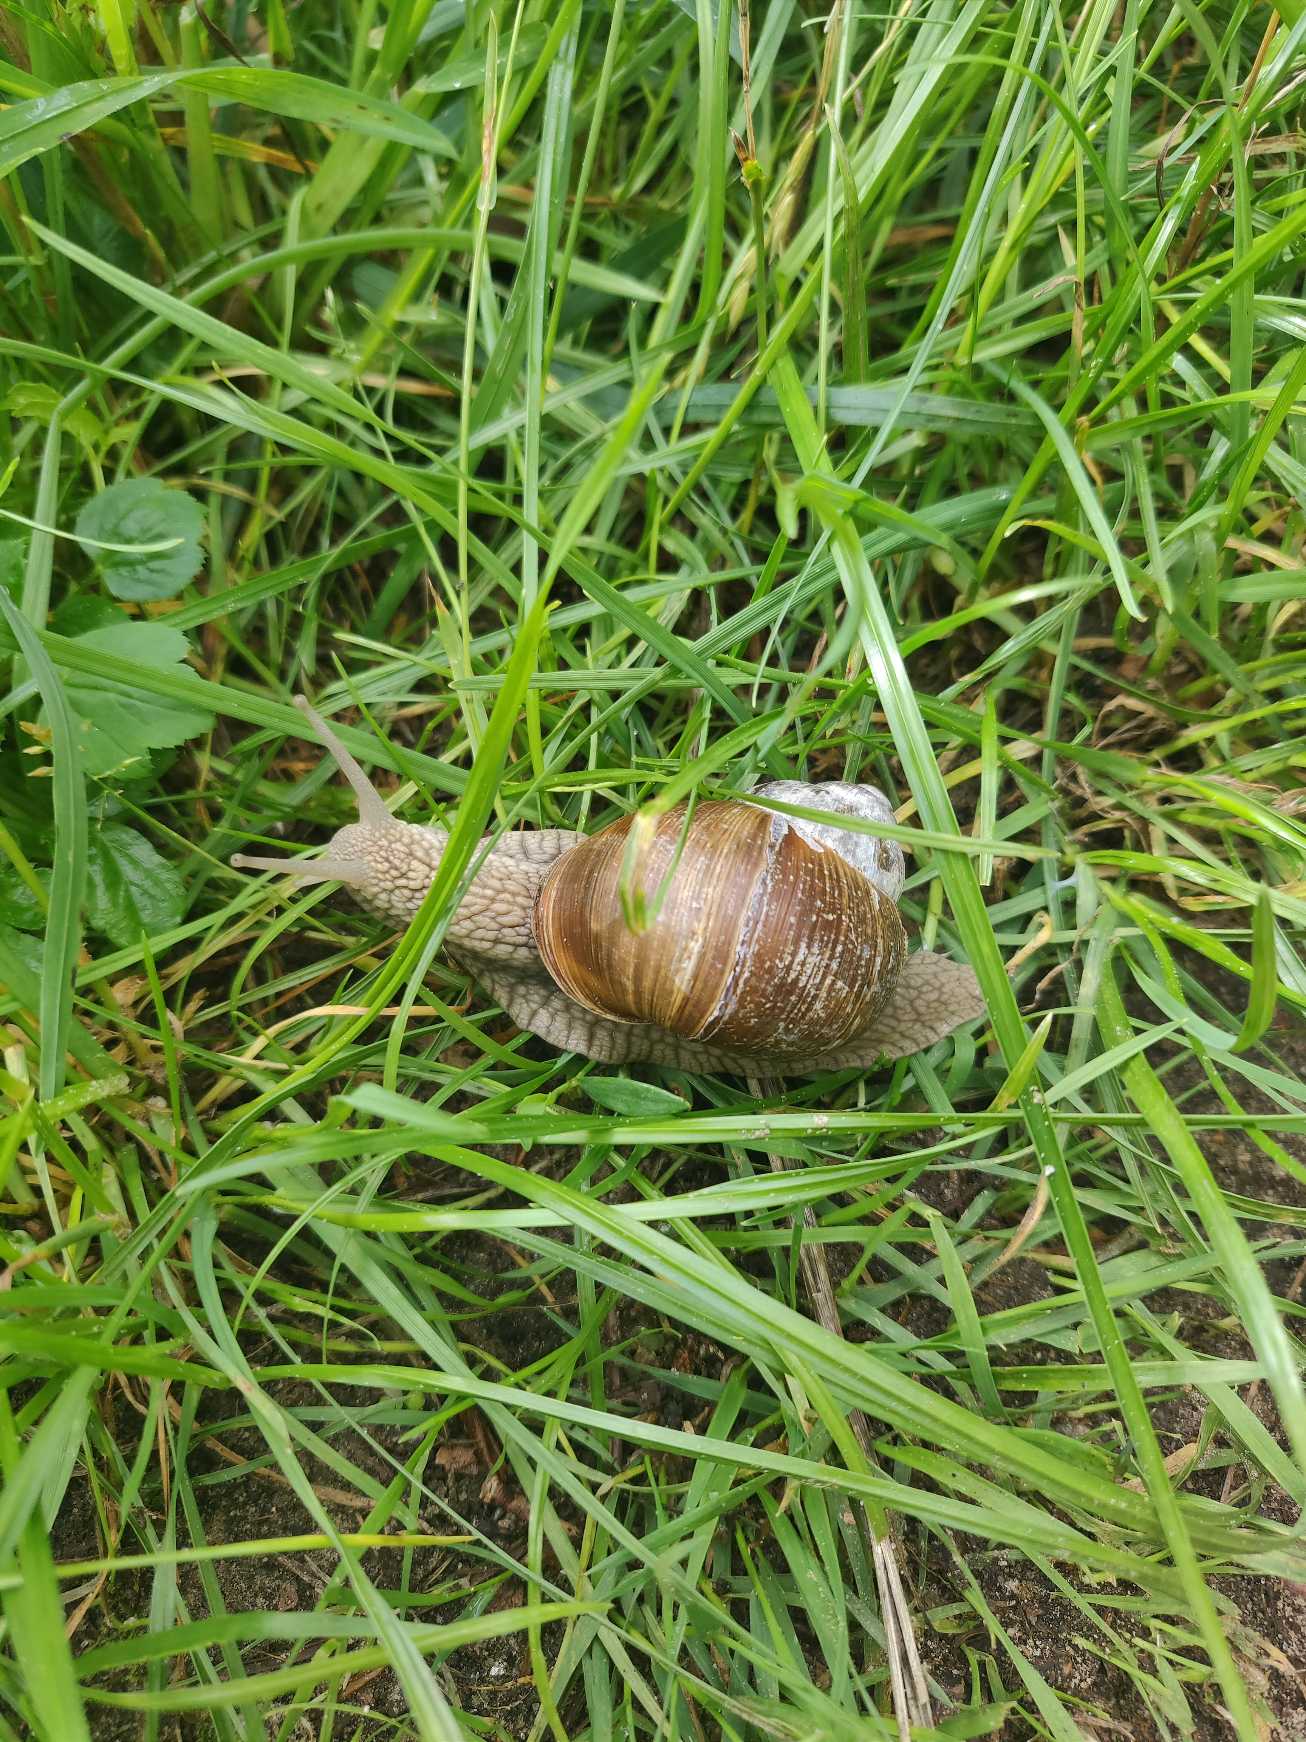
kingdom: Animalia
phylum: Mollusca
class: Gastropoda
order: Stylommatophora
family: Helicidae
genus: Helix
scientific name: Helix pomatia
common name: Vinbjergsnegl
